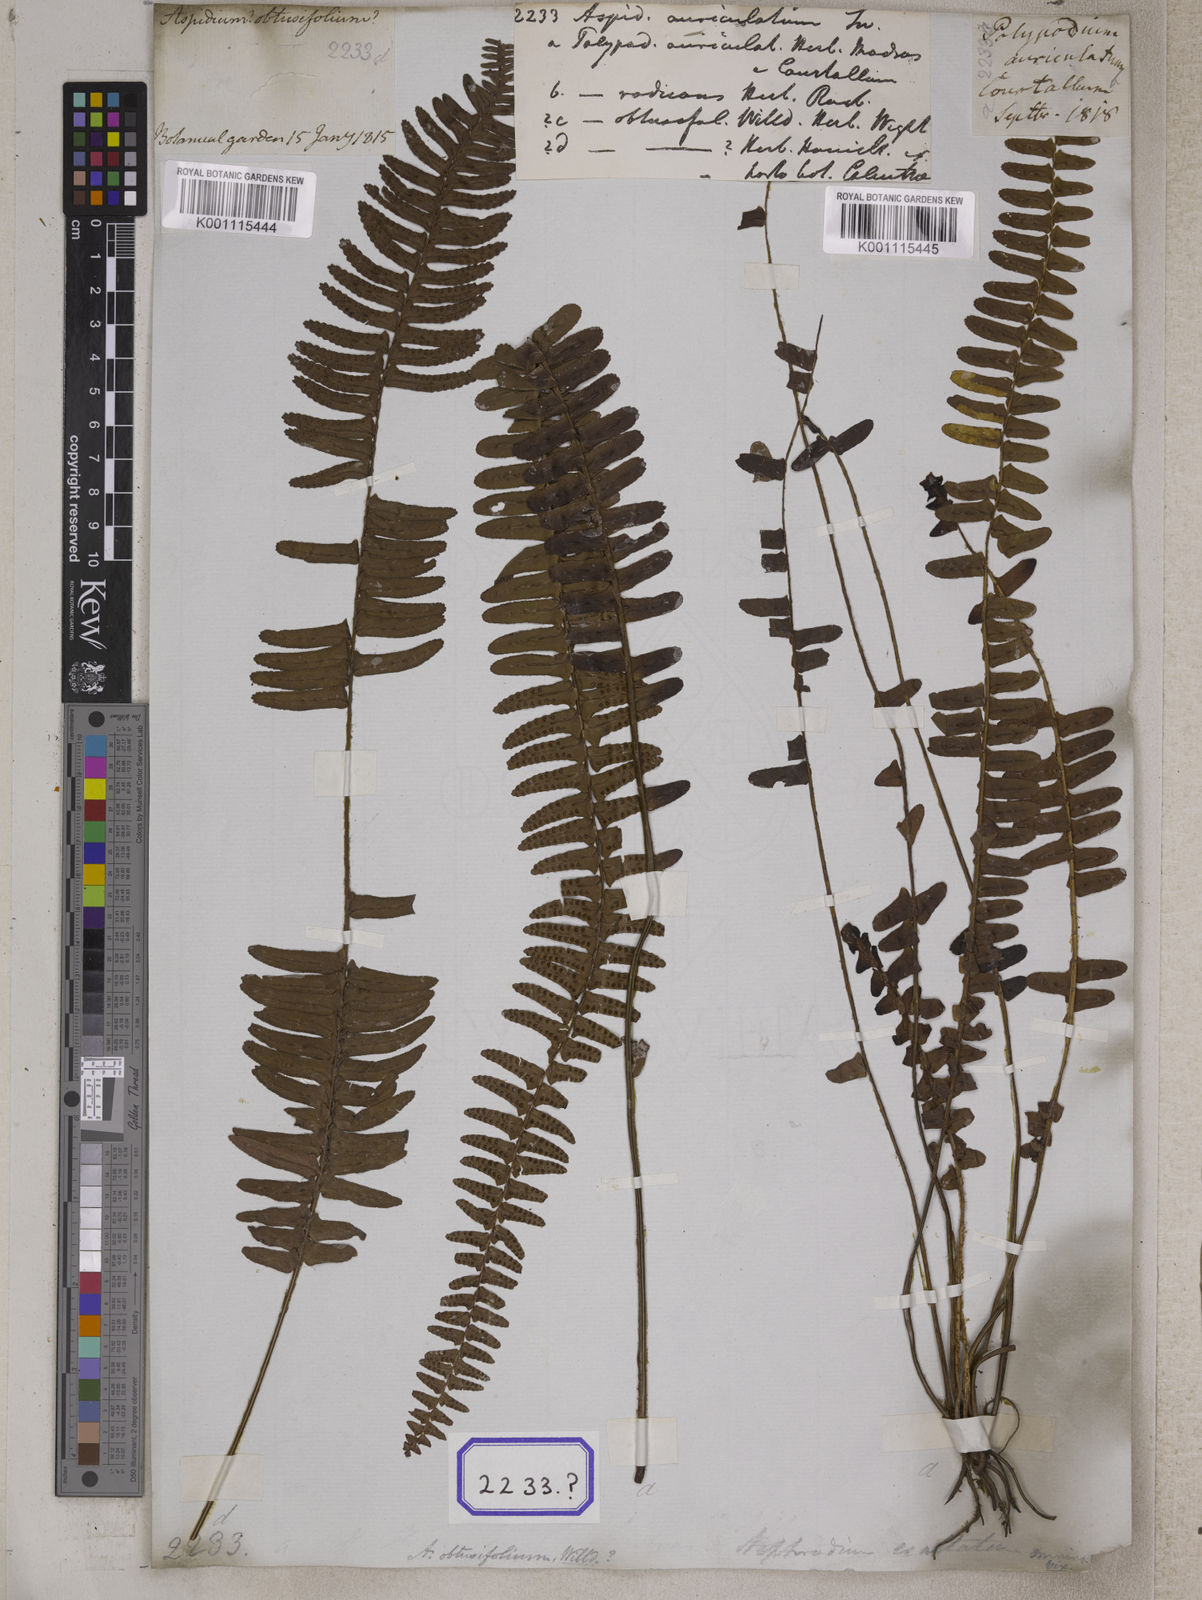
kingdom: Plantae
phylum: Tracheophyta
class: Polypodiopsida
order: Polypodiales
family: Nephrolepidaceae
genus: Nephrolepis
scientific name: Nephrolepis cordifolia
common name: Narrow swordfern
